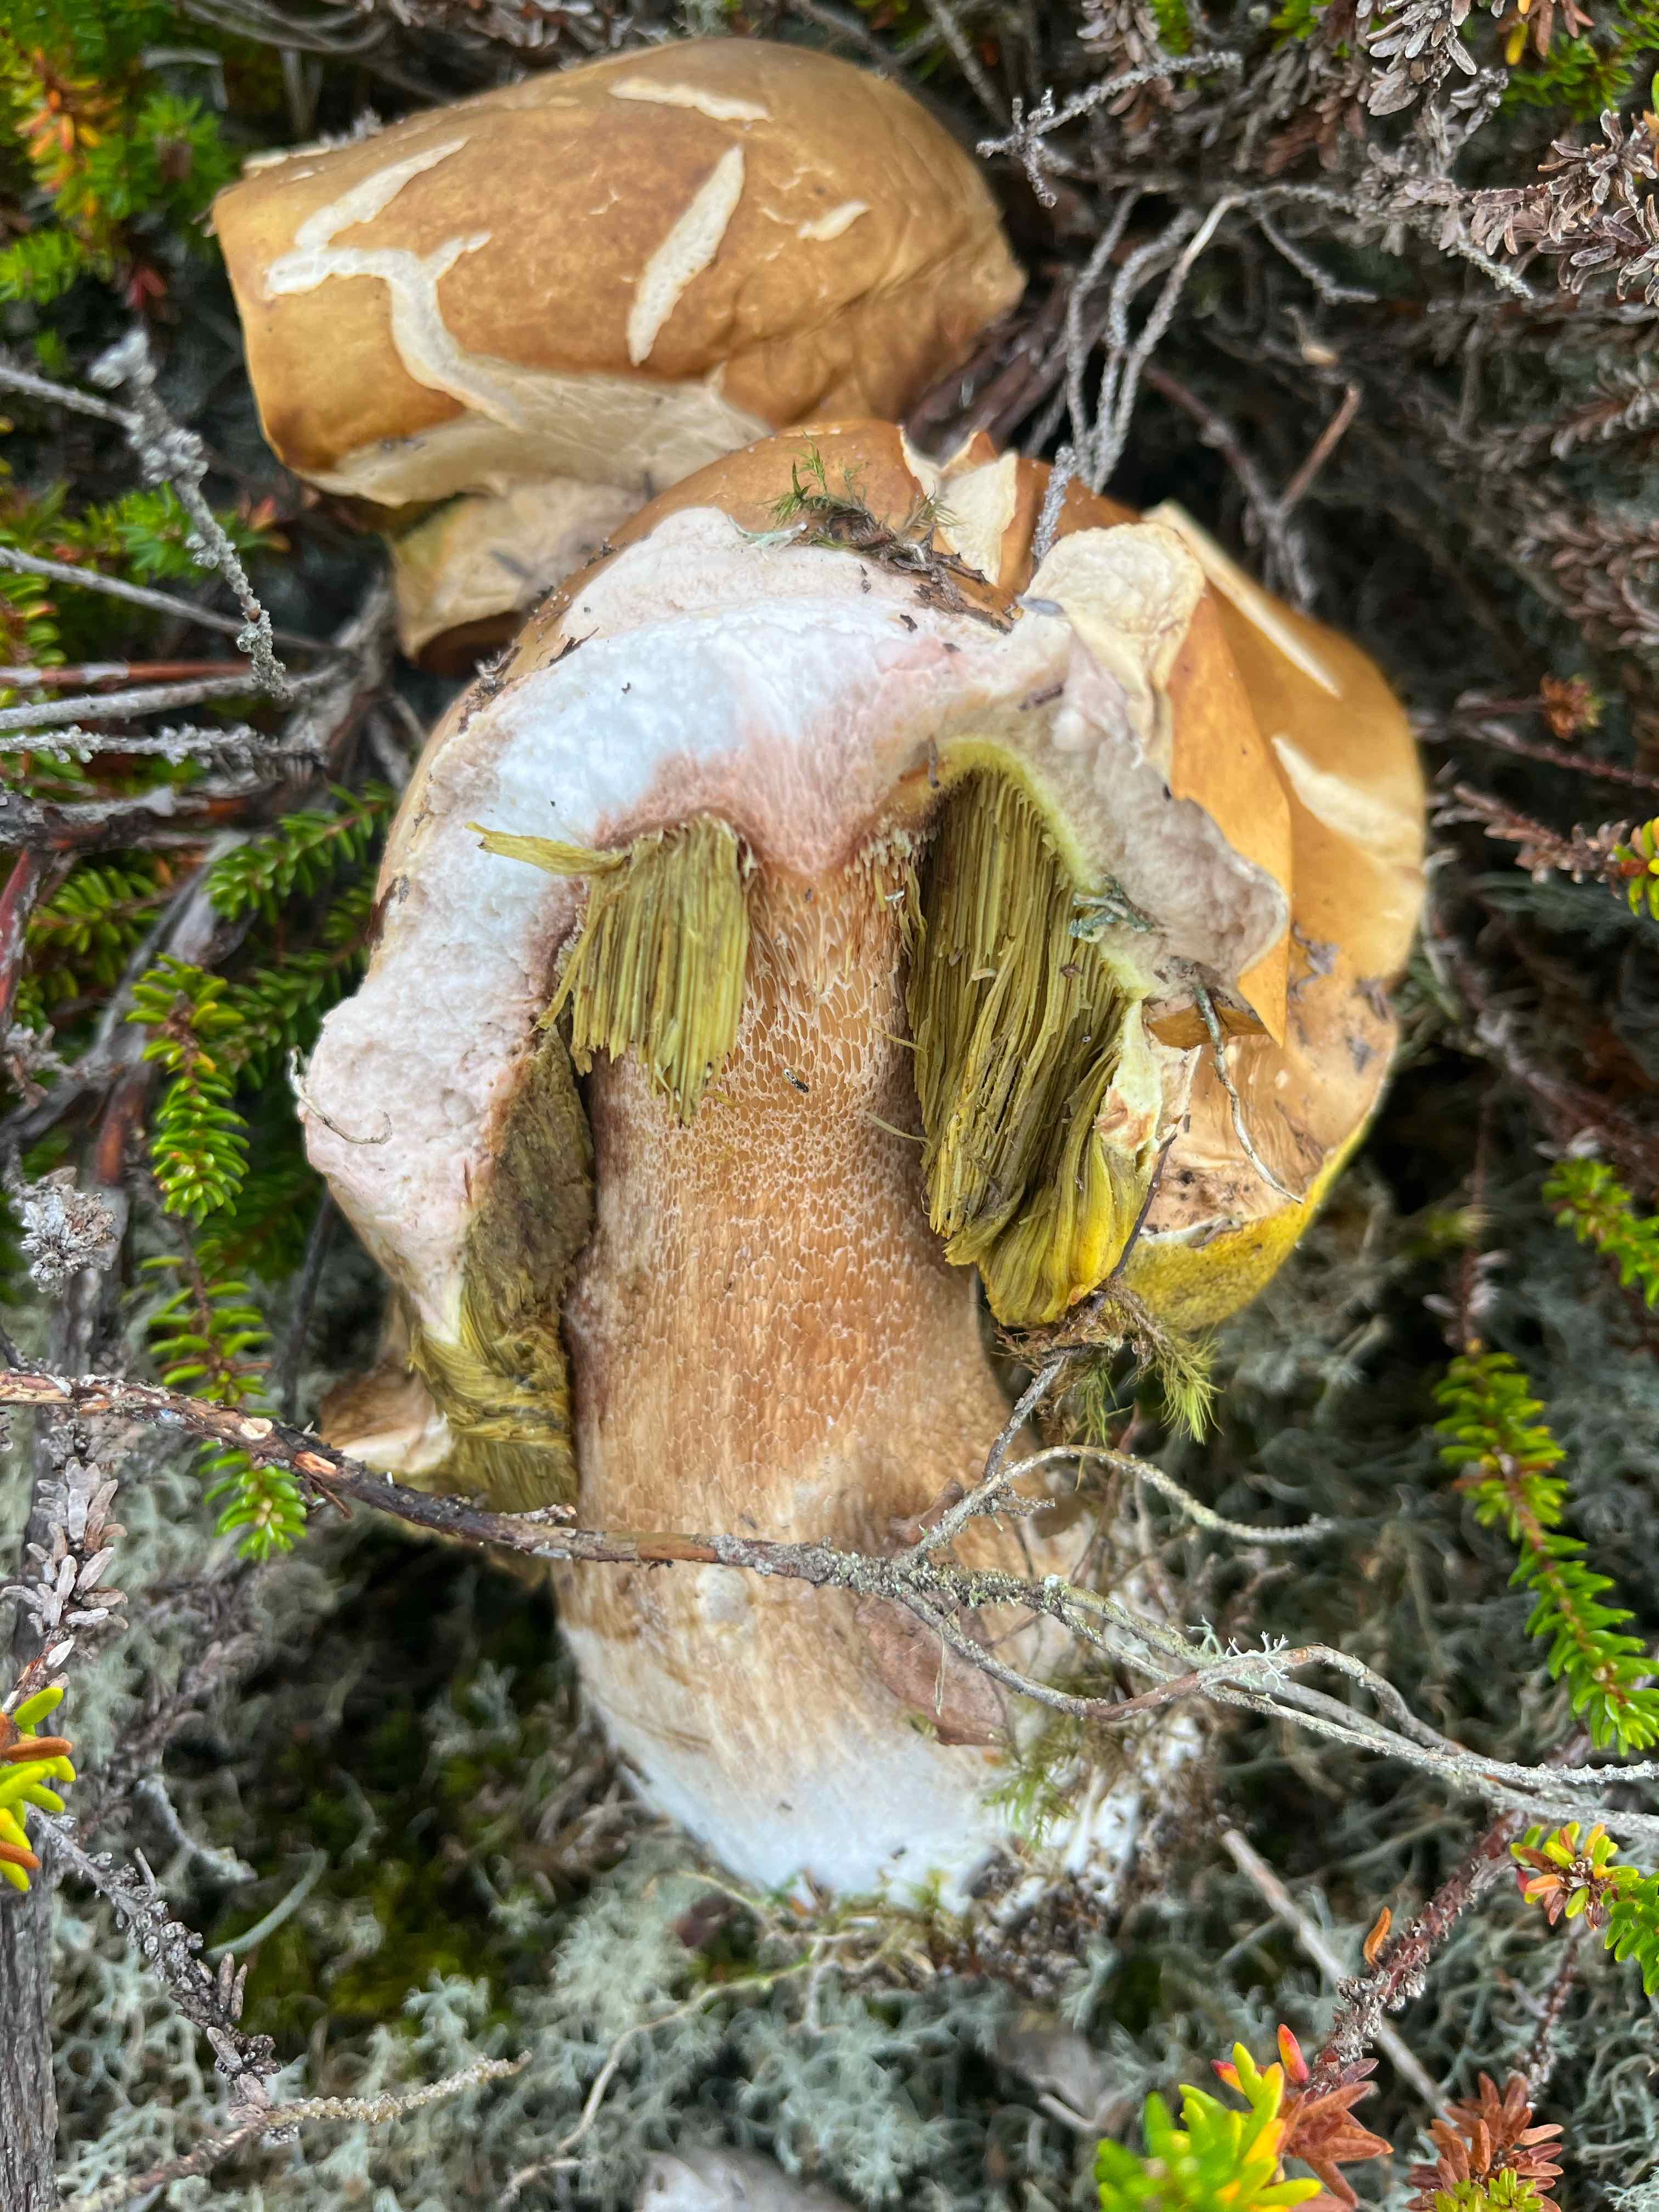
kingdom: Fungi
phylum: Basidiomycota
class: Agaricomycetes
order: Boletales
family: Boletaceae
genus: Boletus
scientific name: Boletus edulis
